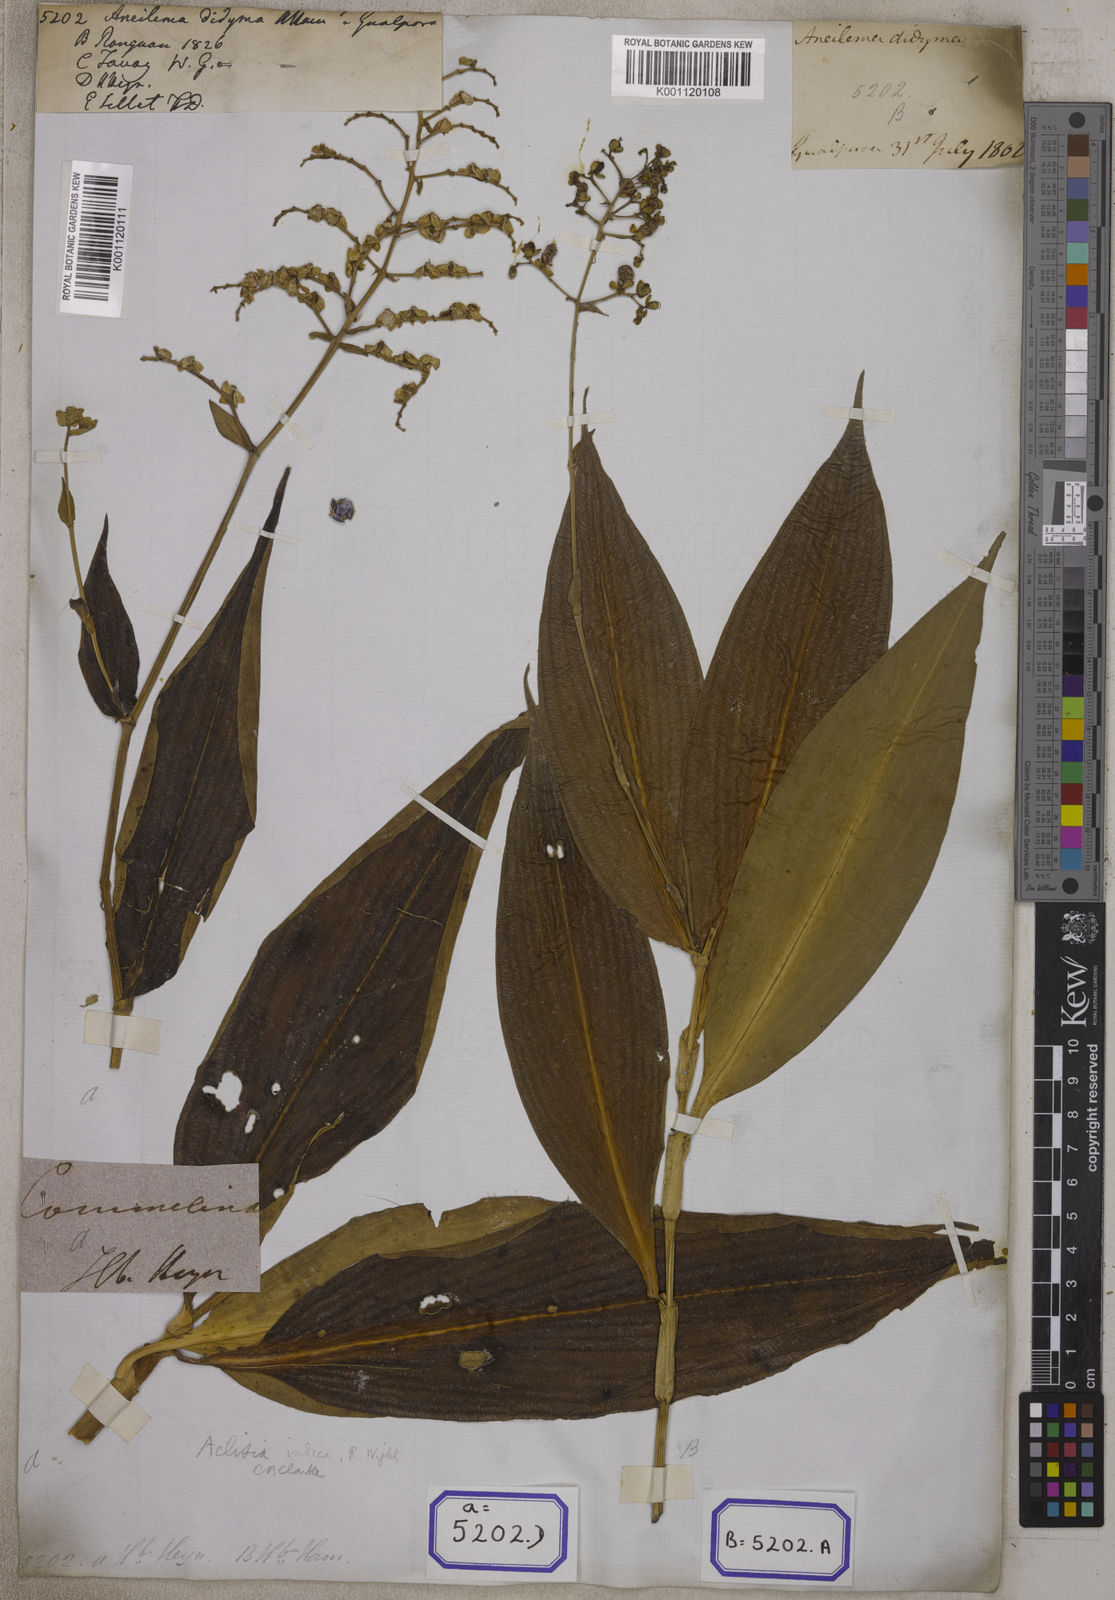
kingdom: Plantae
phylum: Tracheophyta
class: Liliopsida
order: Commelinales
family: Commelinaceae
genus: Aneilema
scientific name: Aneilema
